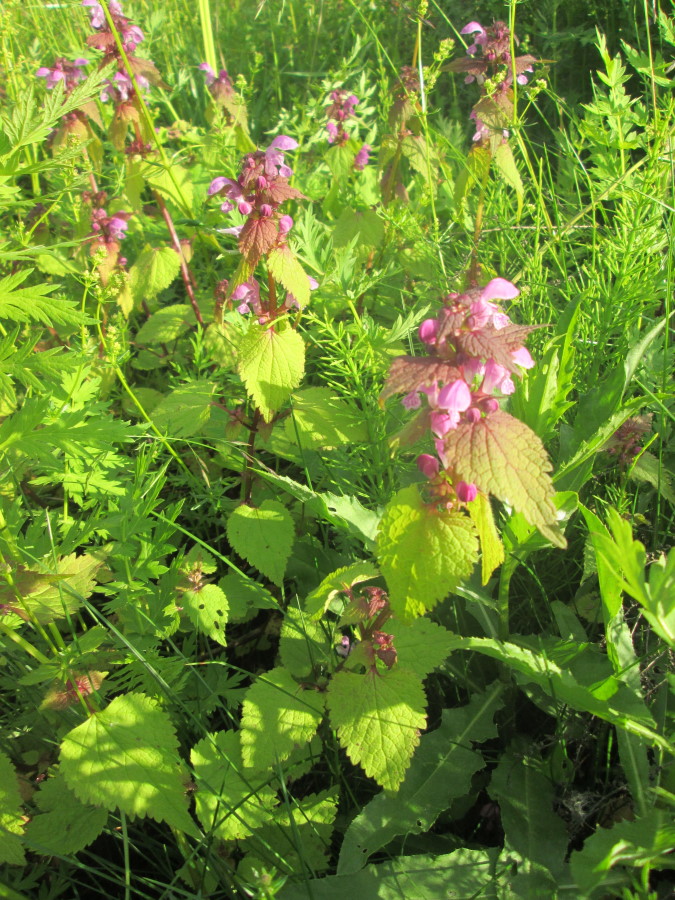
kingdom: Plantae
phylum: Tracheophyta
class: Magnoliopsida
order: Lamiales
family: Lamiaceae
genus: Lamium
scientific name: Lamium maculatum
